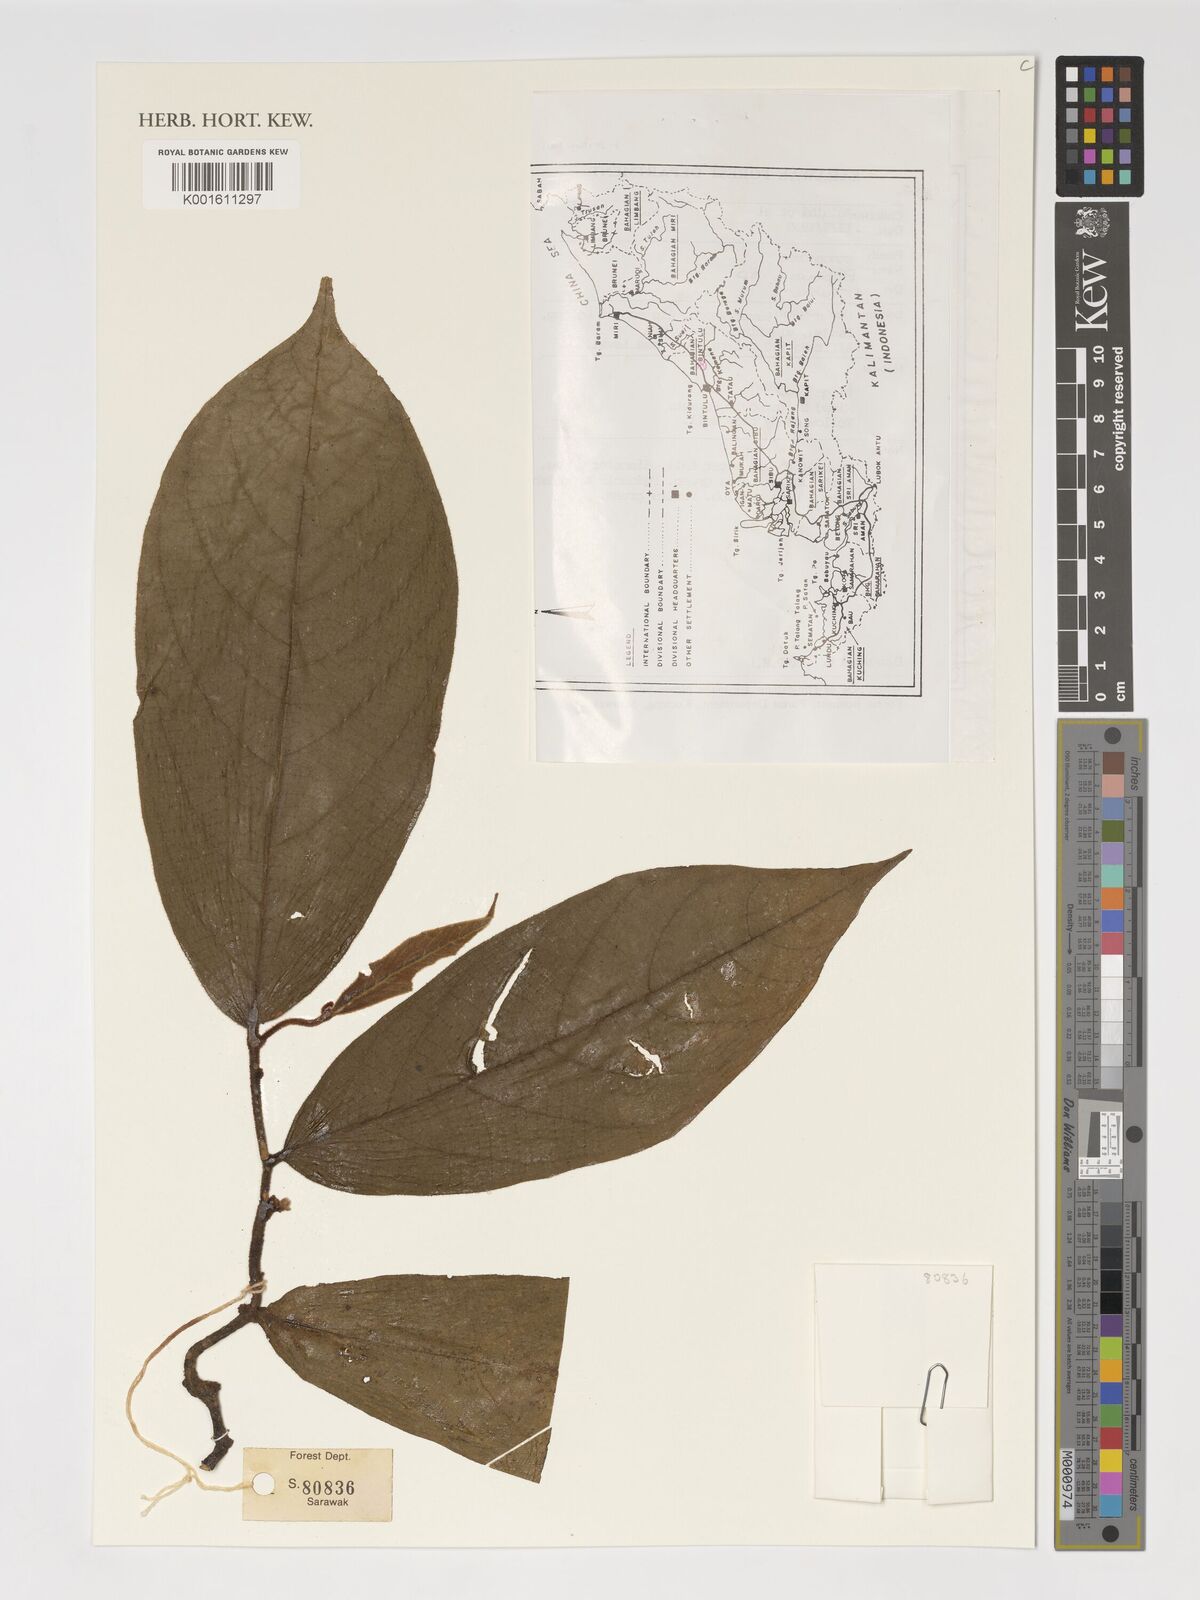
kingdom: Plantae
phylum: Tracheophyta
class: Magnoliopsida
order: Magnoliales
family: Annonaceae
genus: Popowia
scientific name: Popowia
